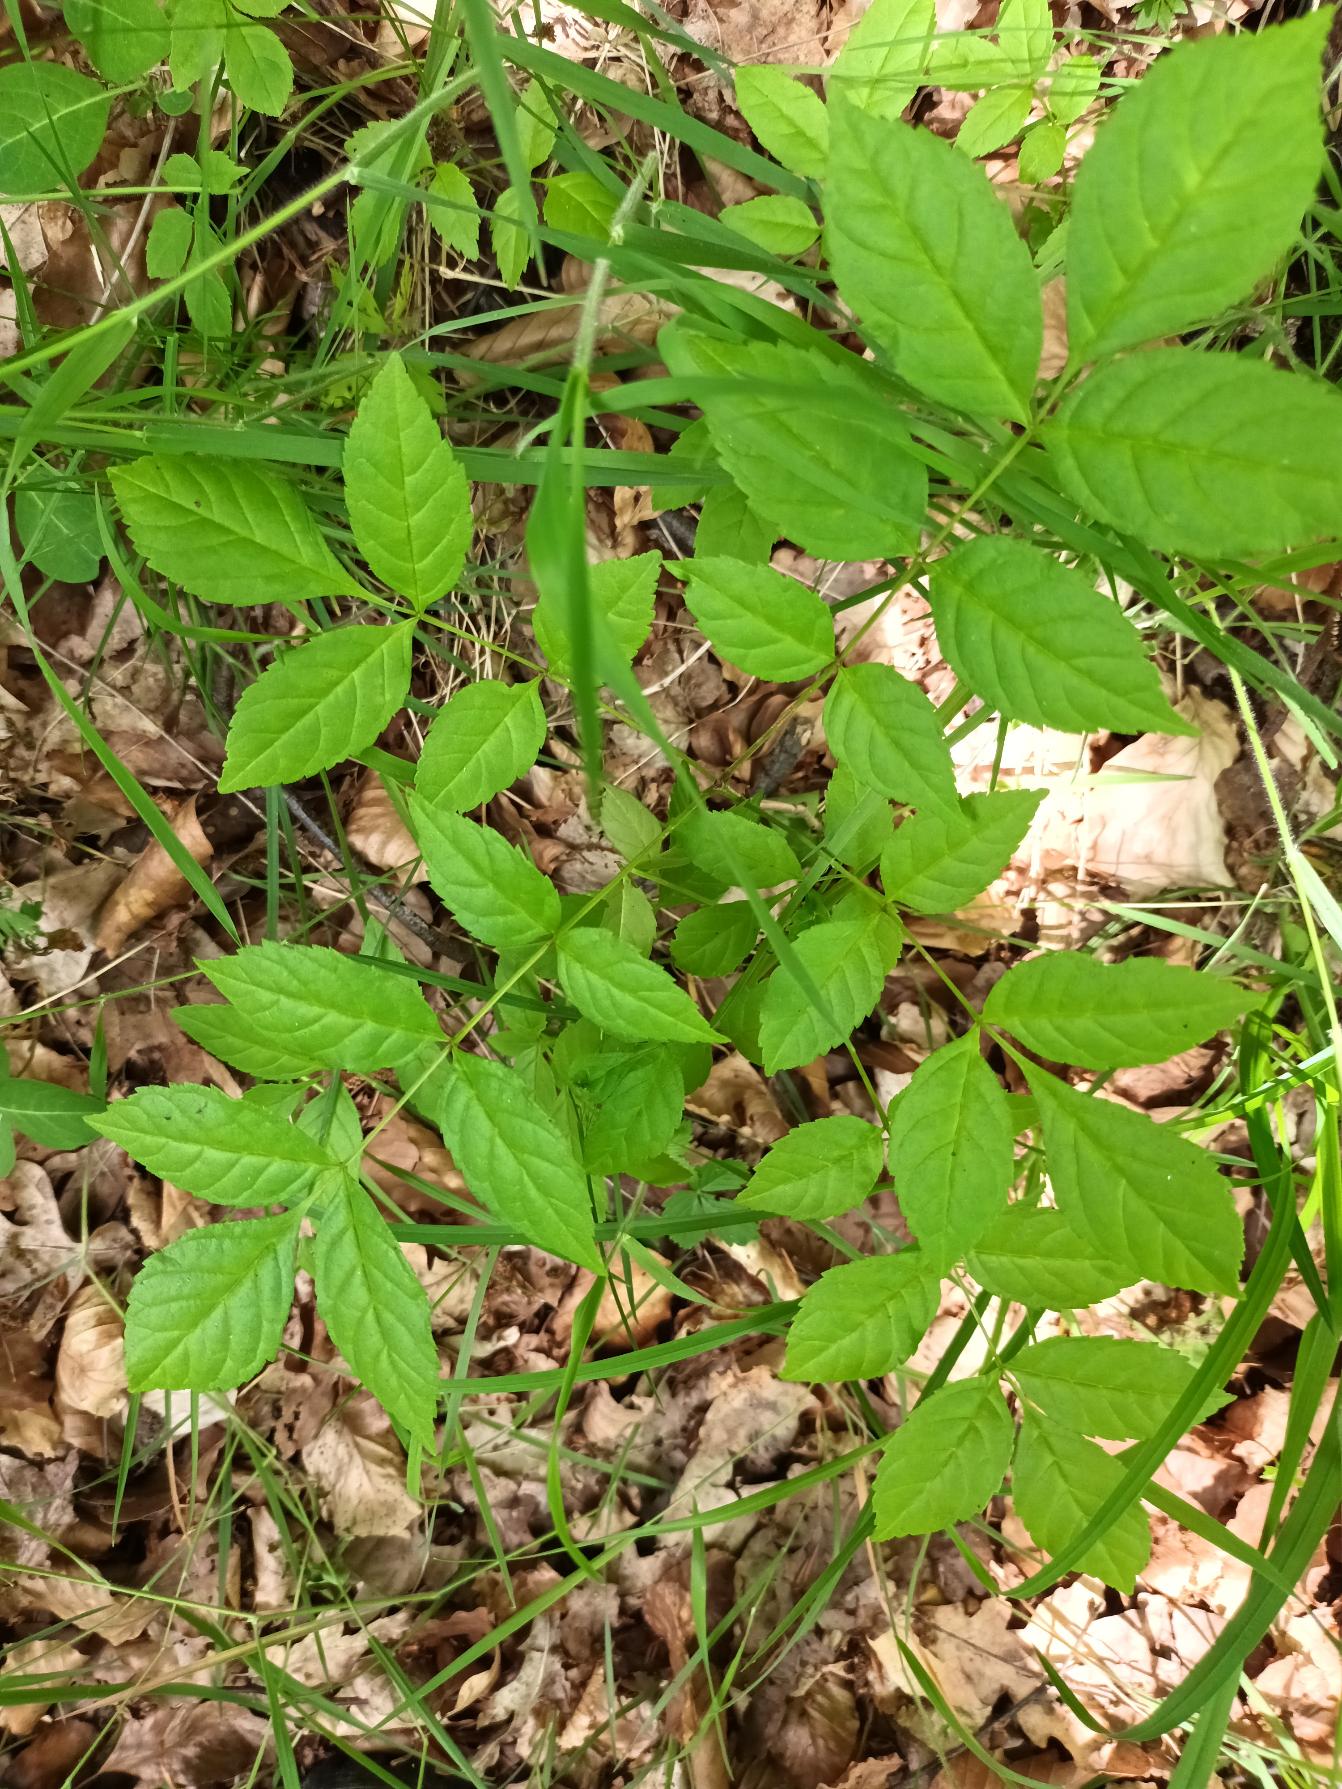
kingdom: Plantae
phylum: Tracheophyta
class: Magnoliopsida
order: Lamiales
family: Oleaceae
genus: Fraxinus
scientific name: Fraxinus excelsior
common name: Ask
